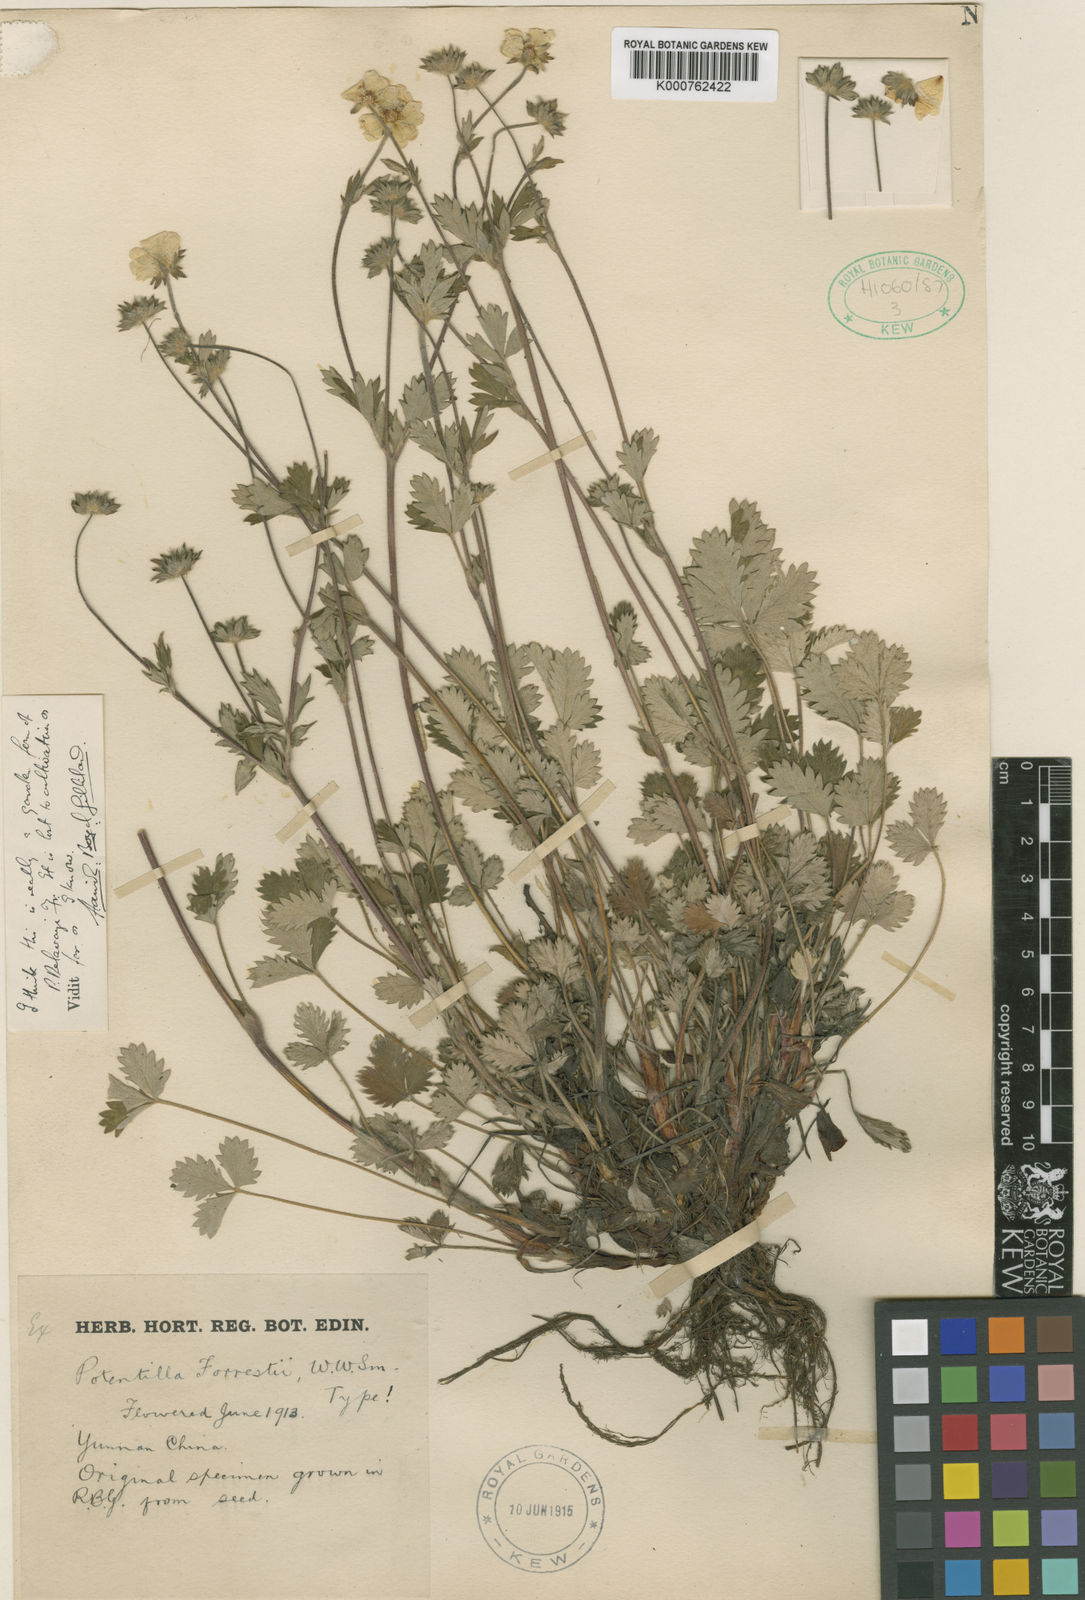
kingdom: Plantae
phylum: Tracheophyta
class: Magnoliopsida
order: Rosales
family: Rosaceae
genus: Potentilla
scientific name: Potentilla forrestii
